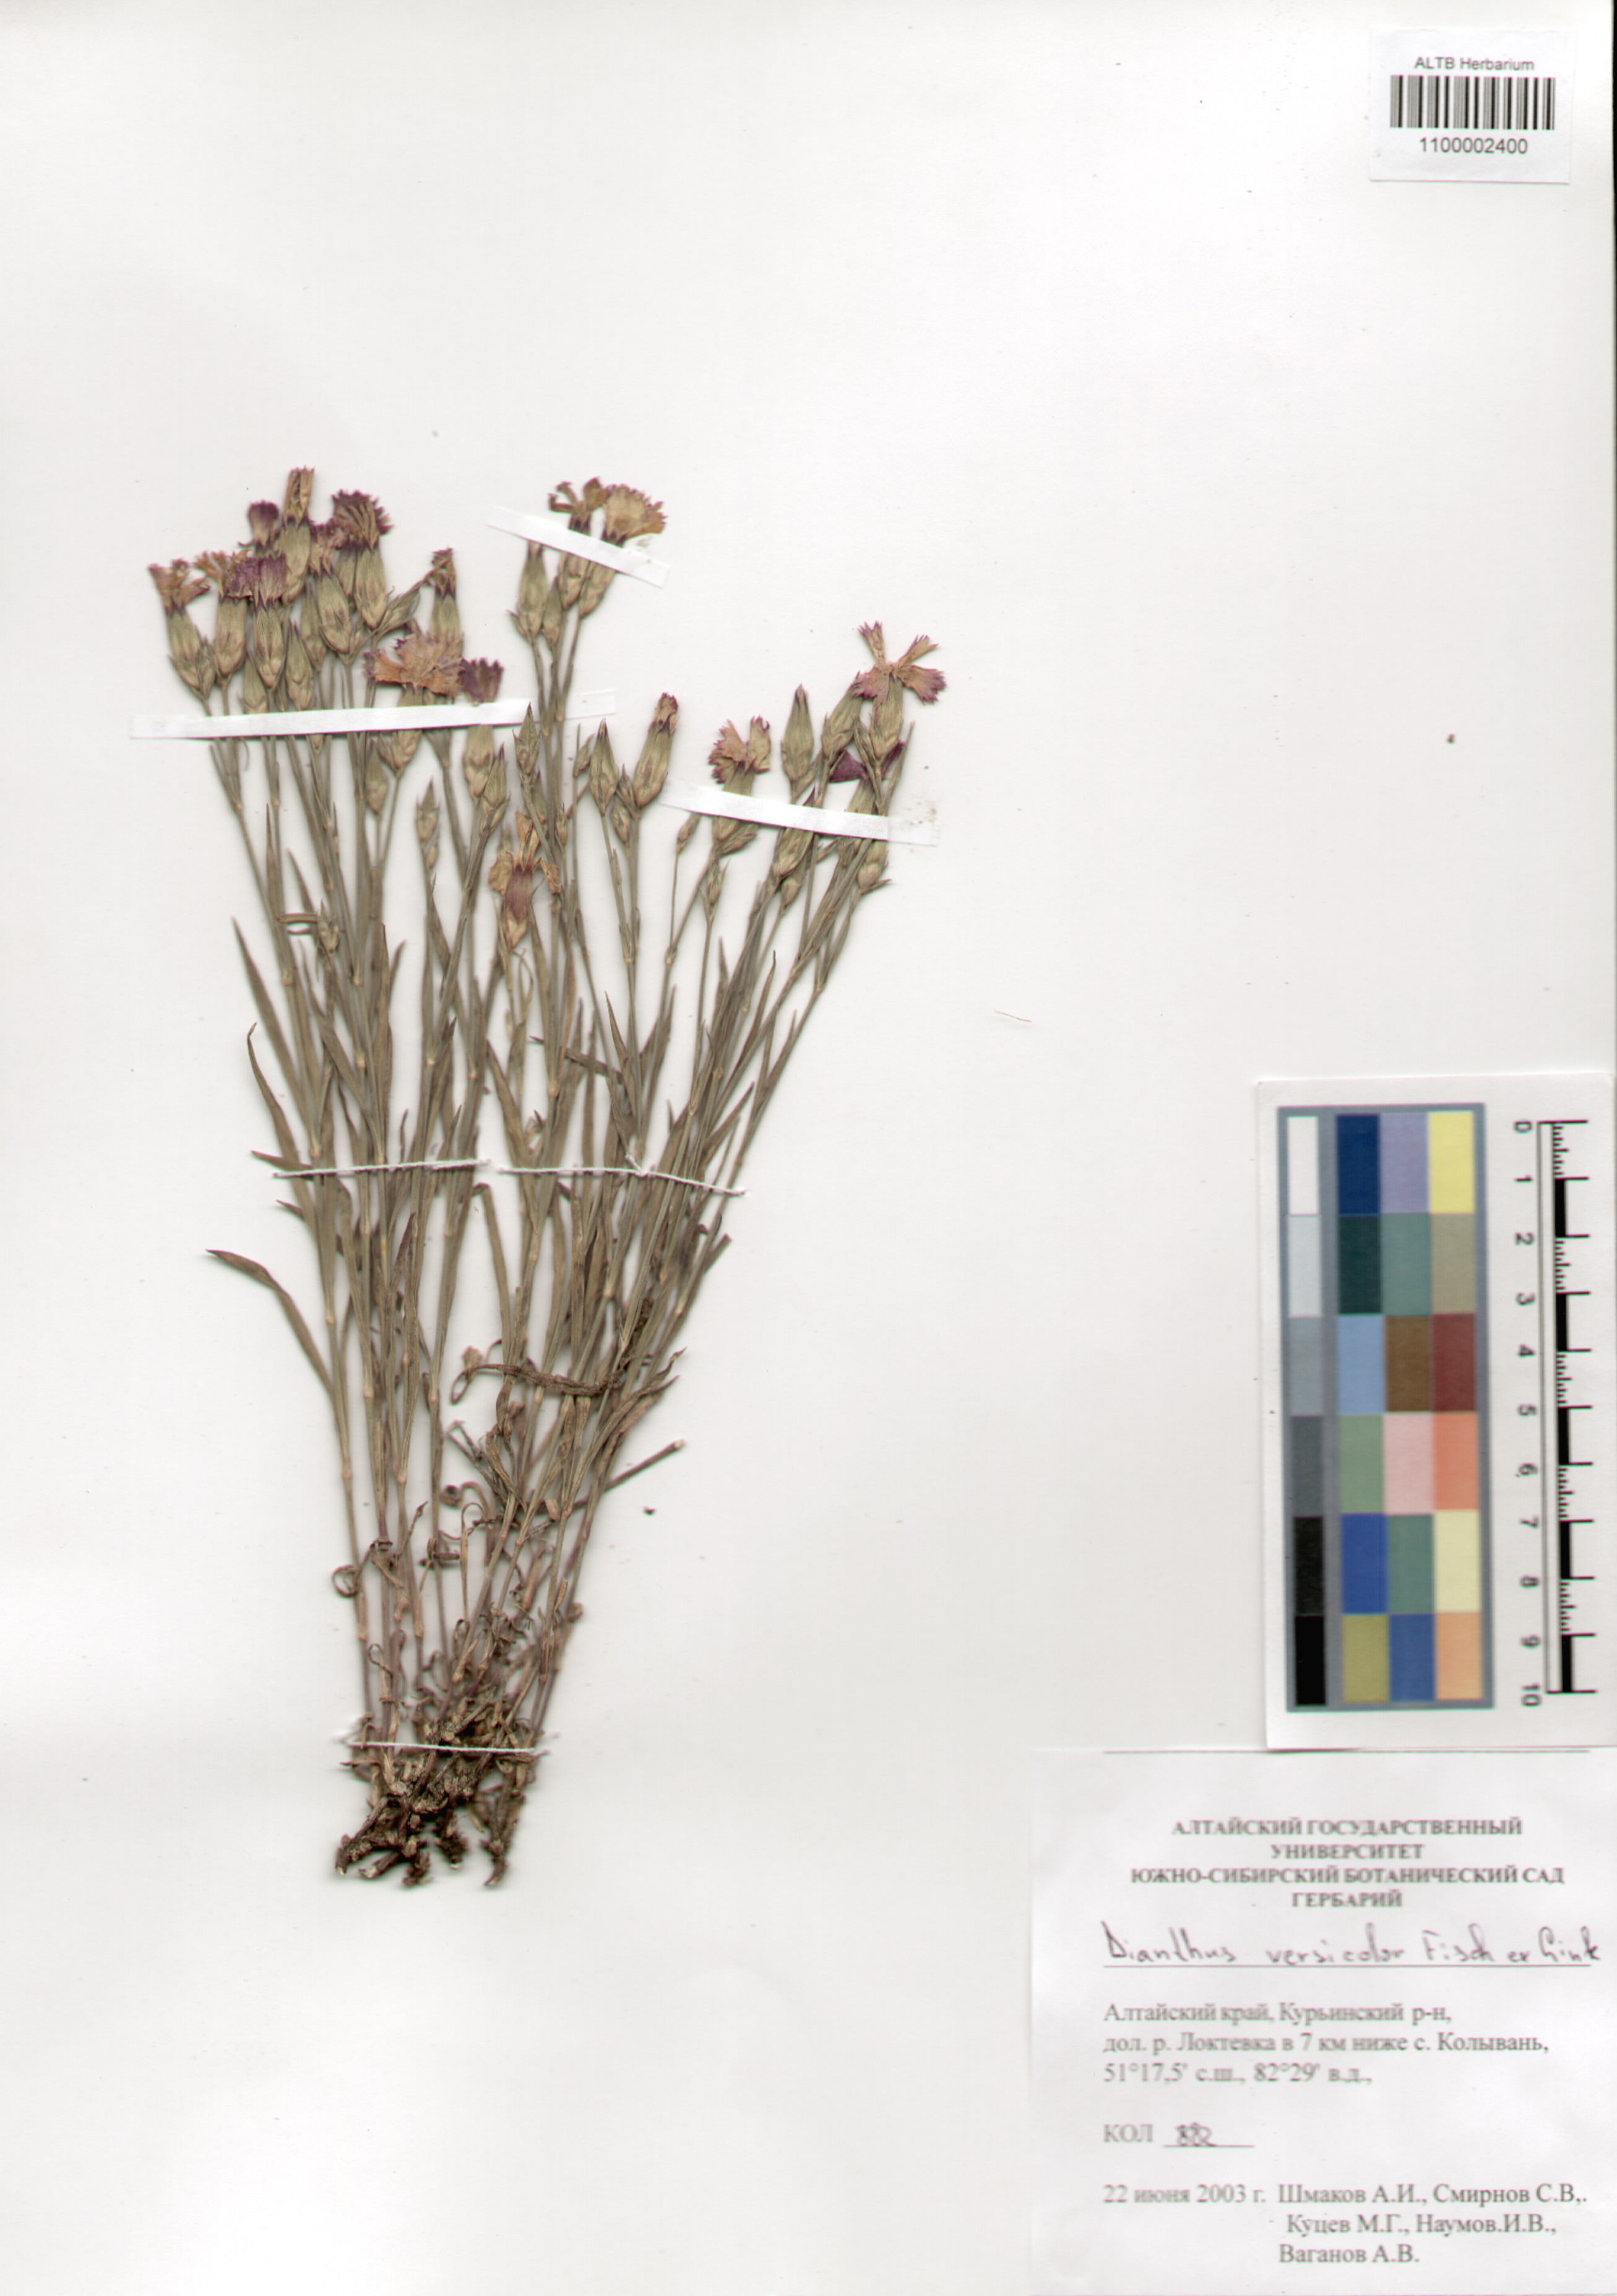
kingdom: Plantae
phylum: Tracheophyta
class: Magnoliopsida
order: Caryophyllales
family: Caryophyllaceae
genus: Dianthus
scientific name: Dianthus chinensis
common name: Rainbow pink
